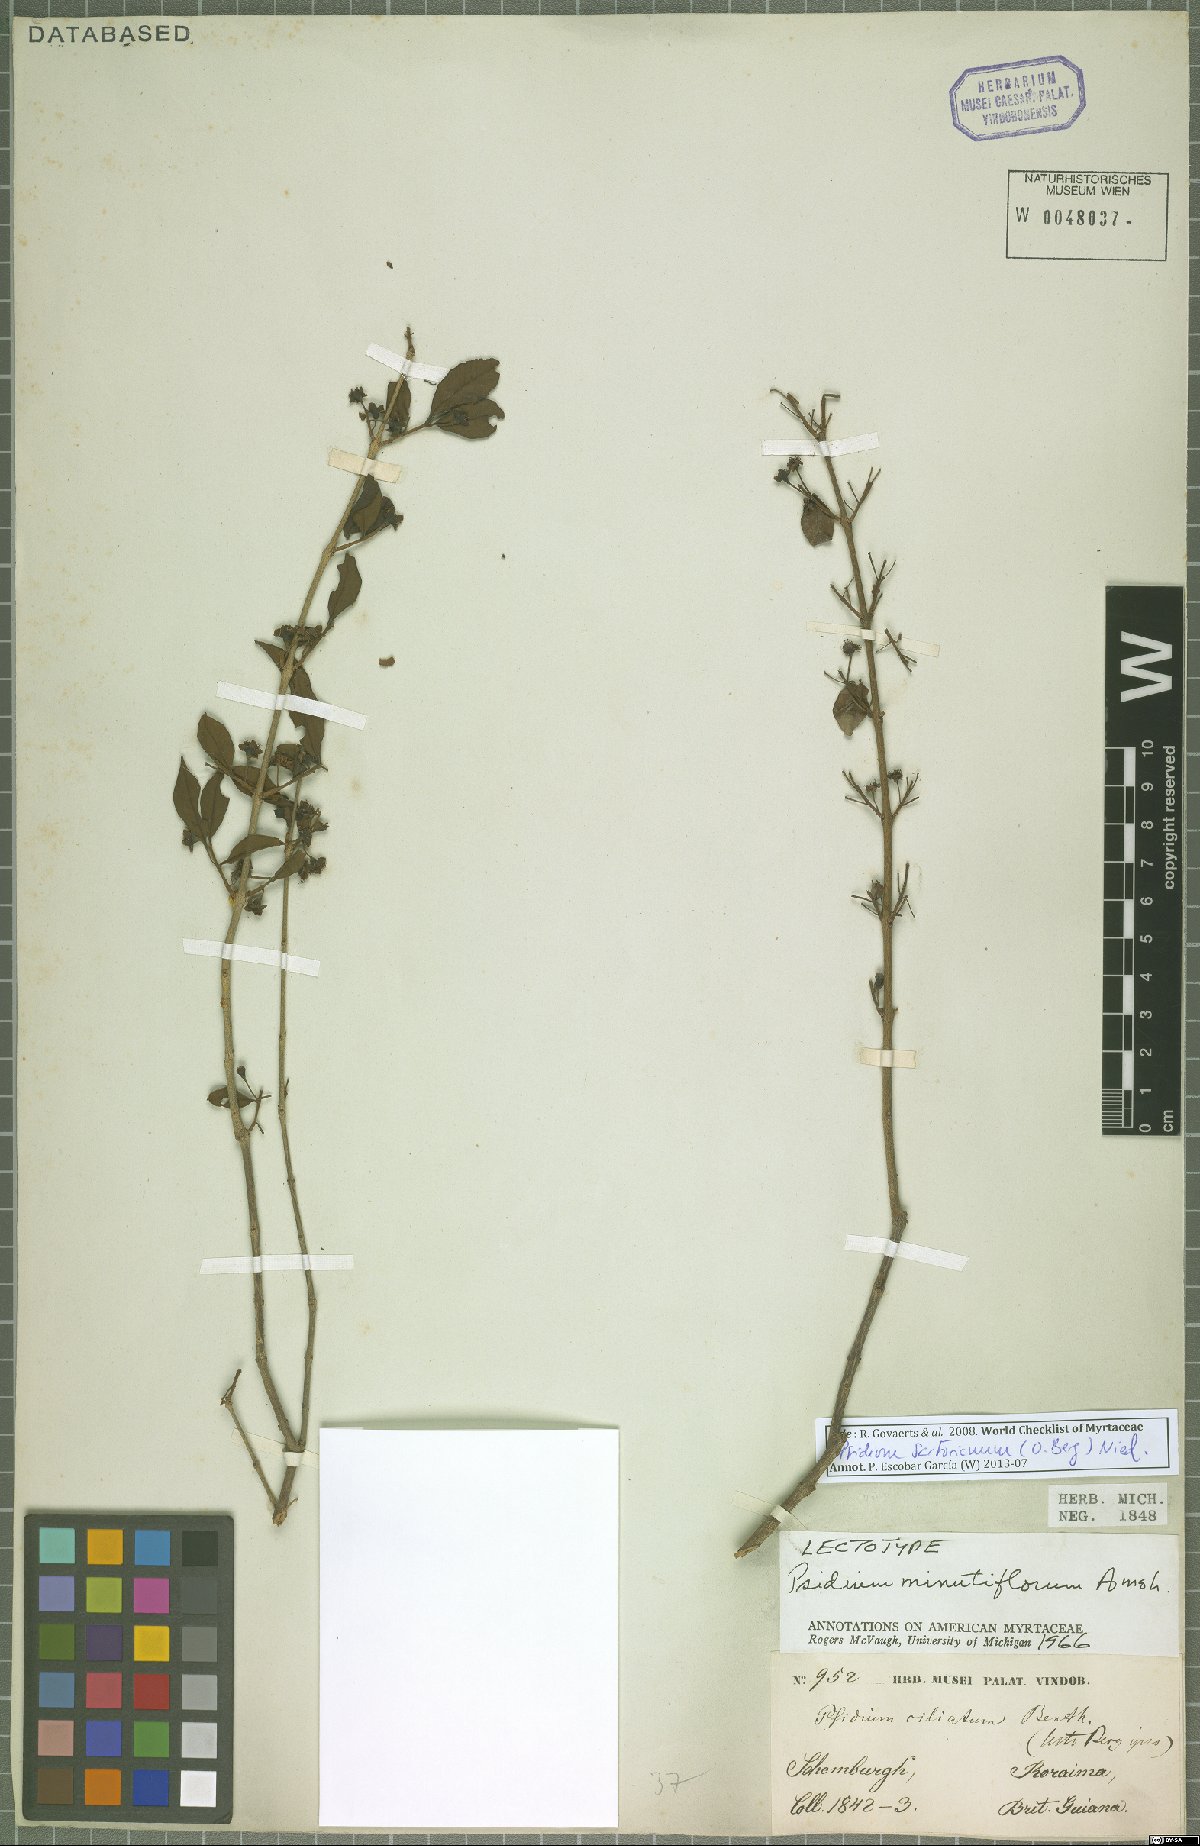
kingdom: Plantae
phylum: Tracheophyta
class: Magnoliopsida
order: Myrtales
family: Myrtaceae
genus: Psidium
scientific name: Psidium sartorianum
